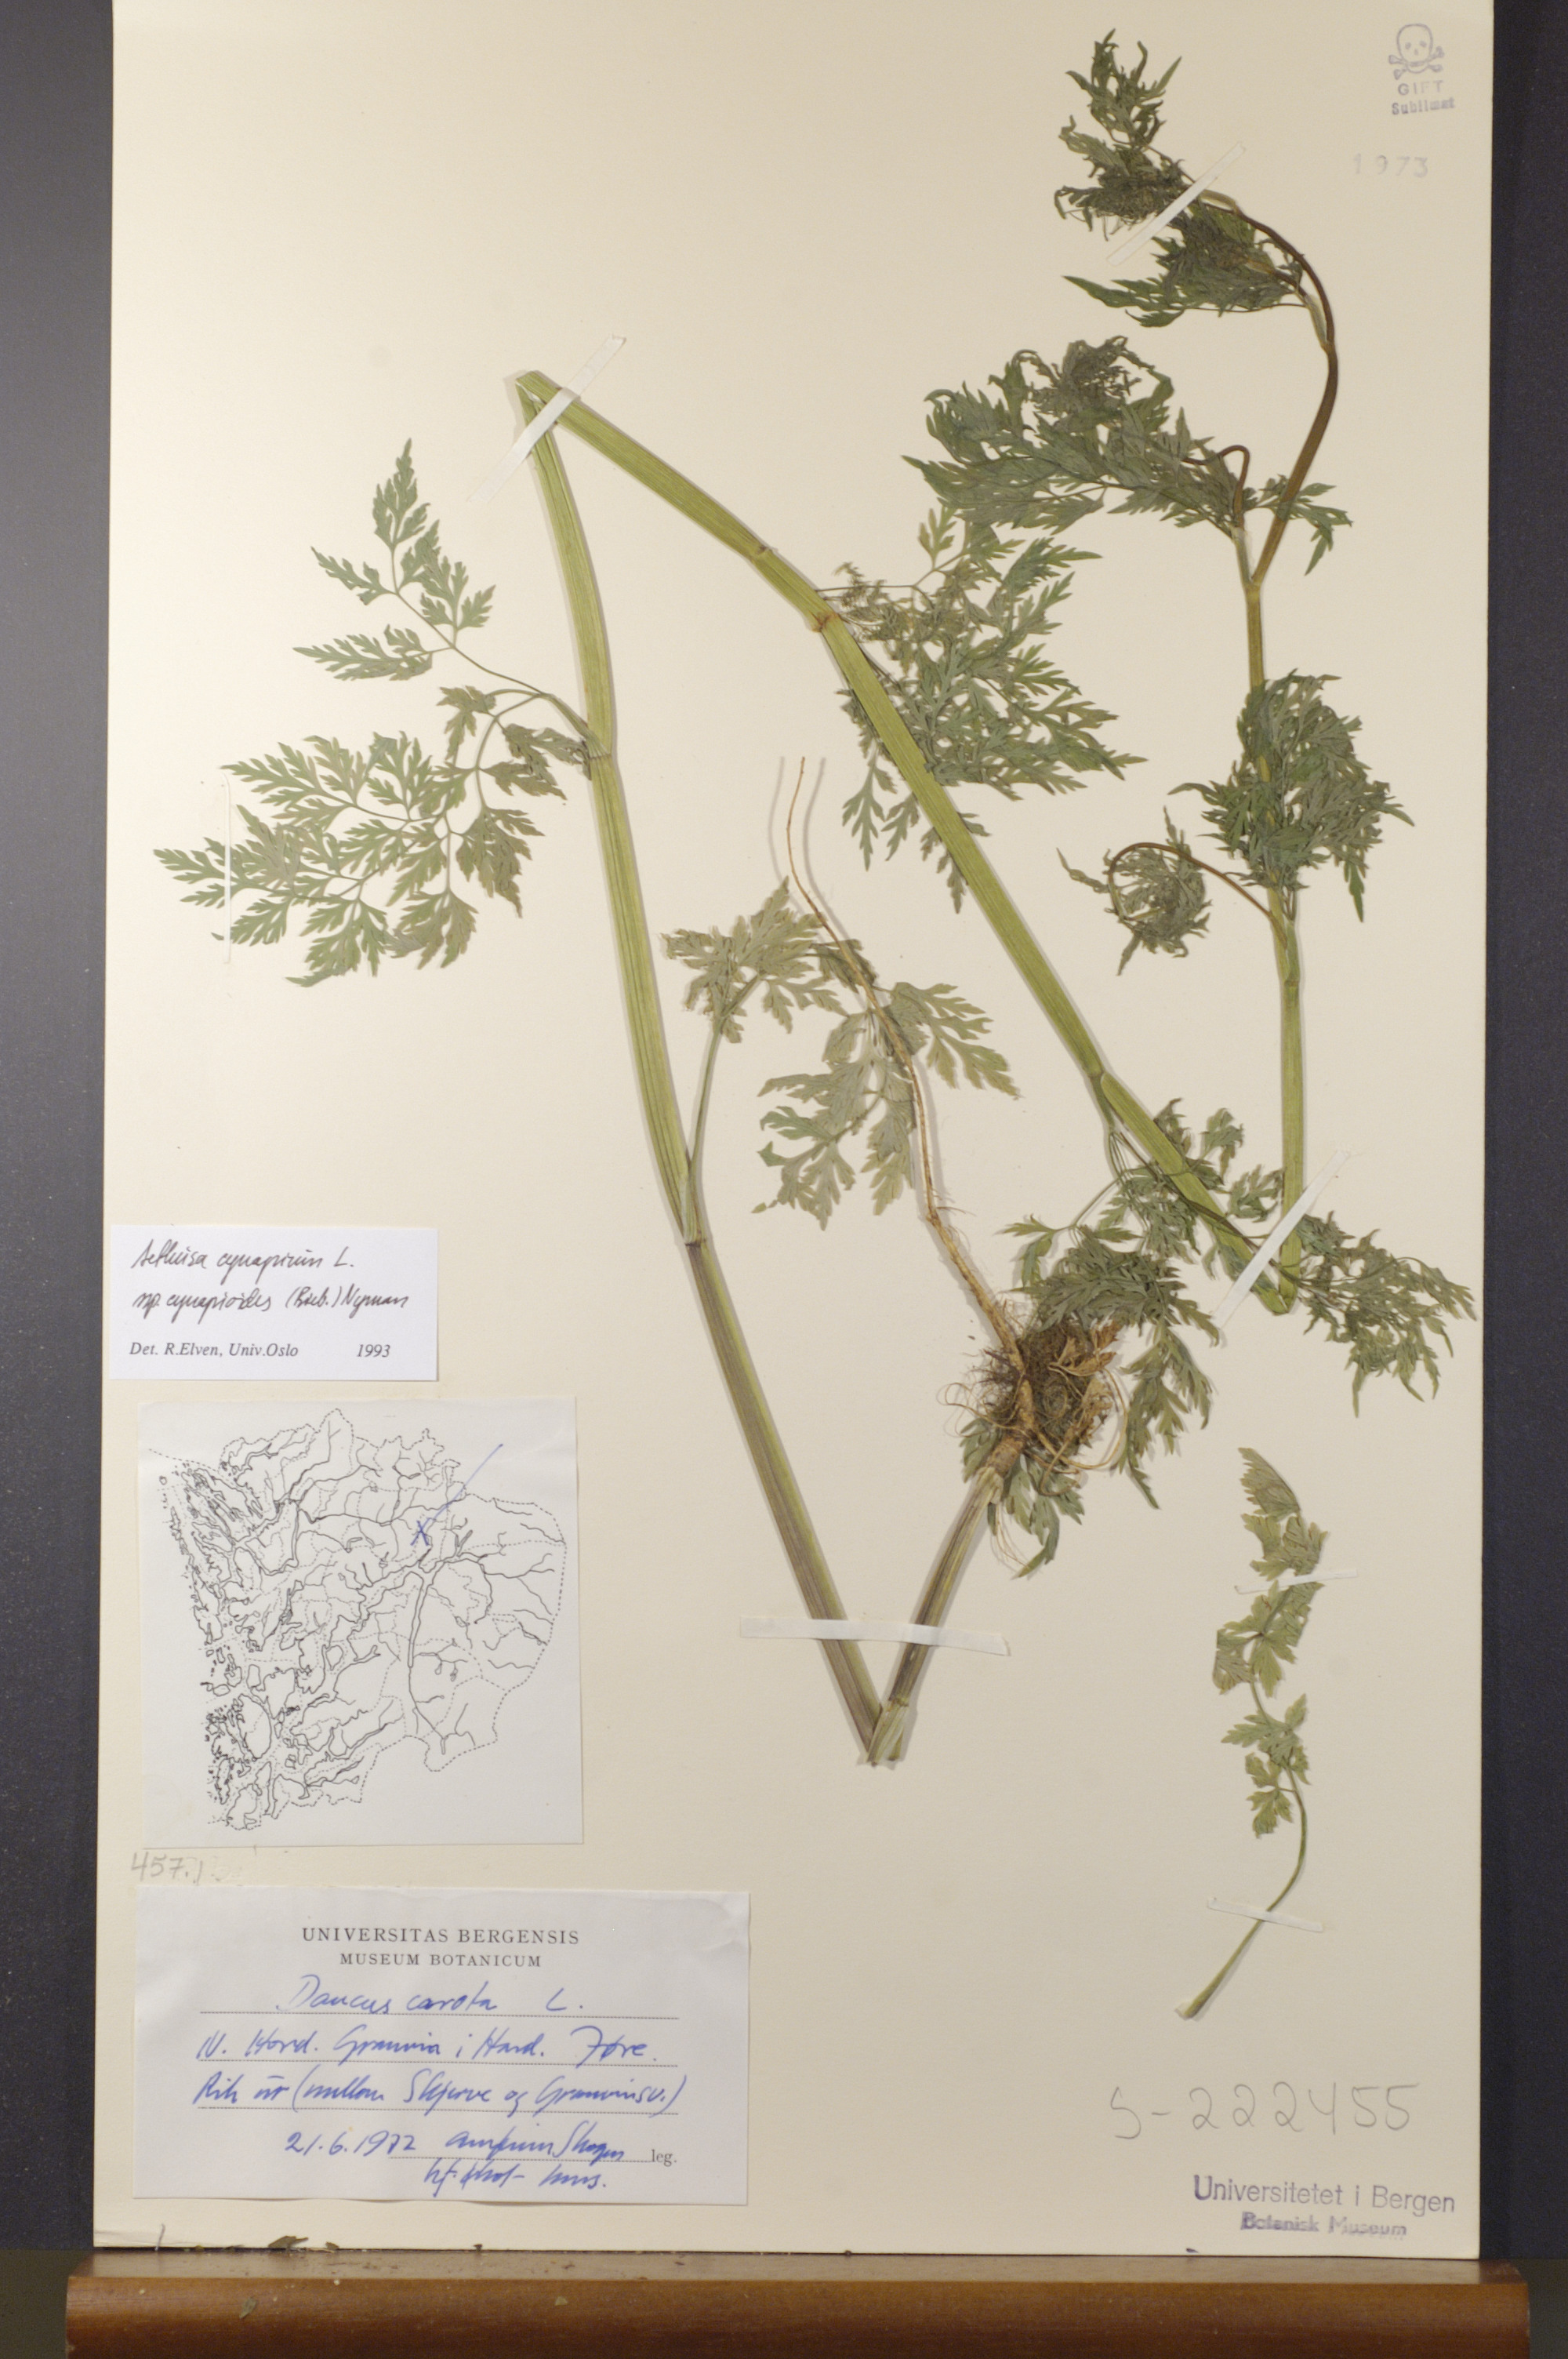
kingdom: Plantae
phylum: Tracheophyta
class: Magnoliopsida
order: Apiales
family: Apiaceae
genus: Aethusa
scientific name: Aethusa cynapium
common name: Fool's parsley
